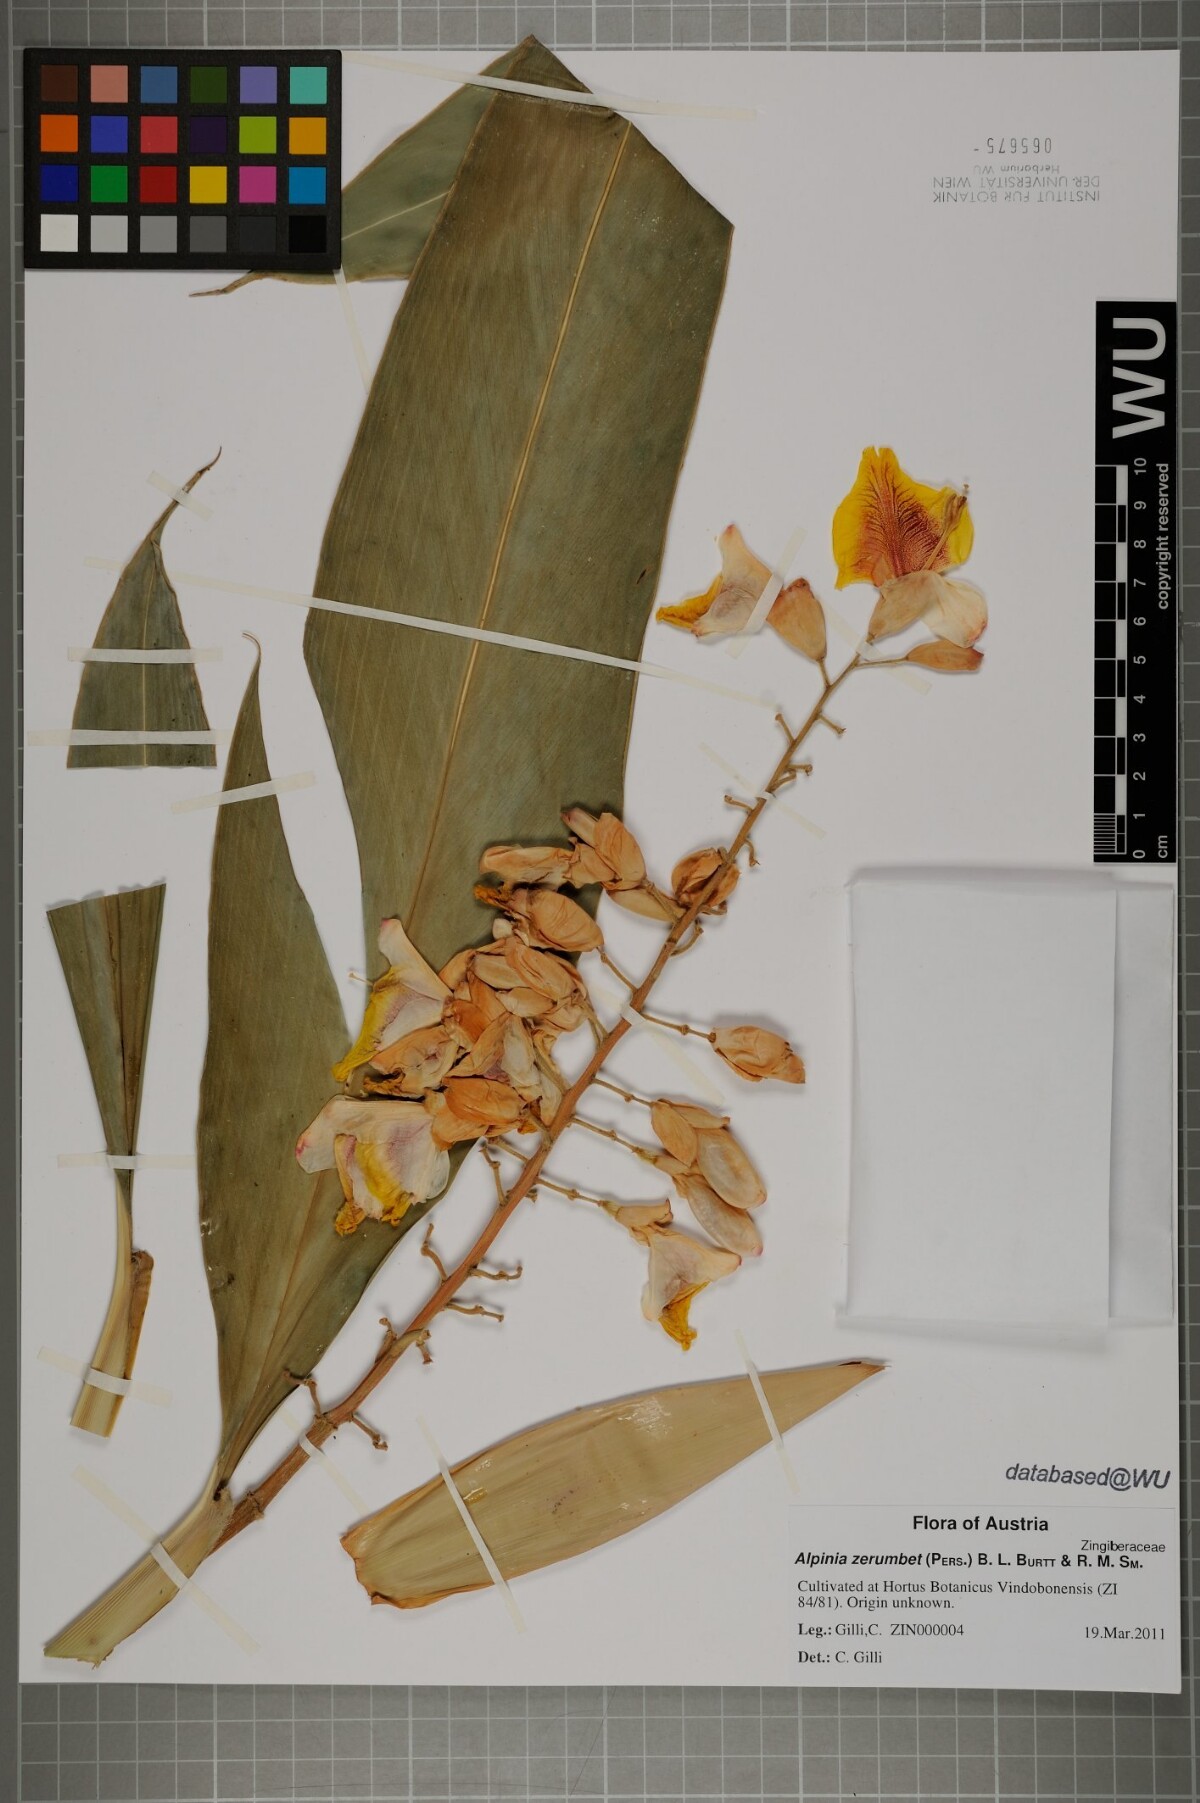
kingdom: Plantae
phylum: Tracheophyta
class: Liliopsida
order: Zingiberales
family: Zingiberaceae
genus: Alpinia
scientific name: Alpinia zerumbet
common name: Shellplant
